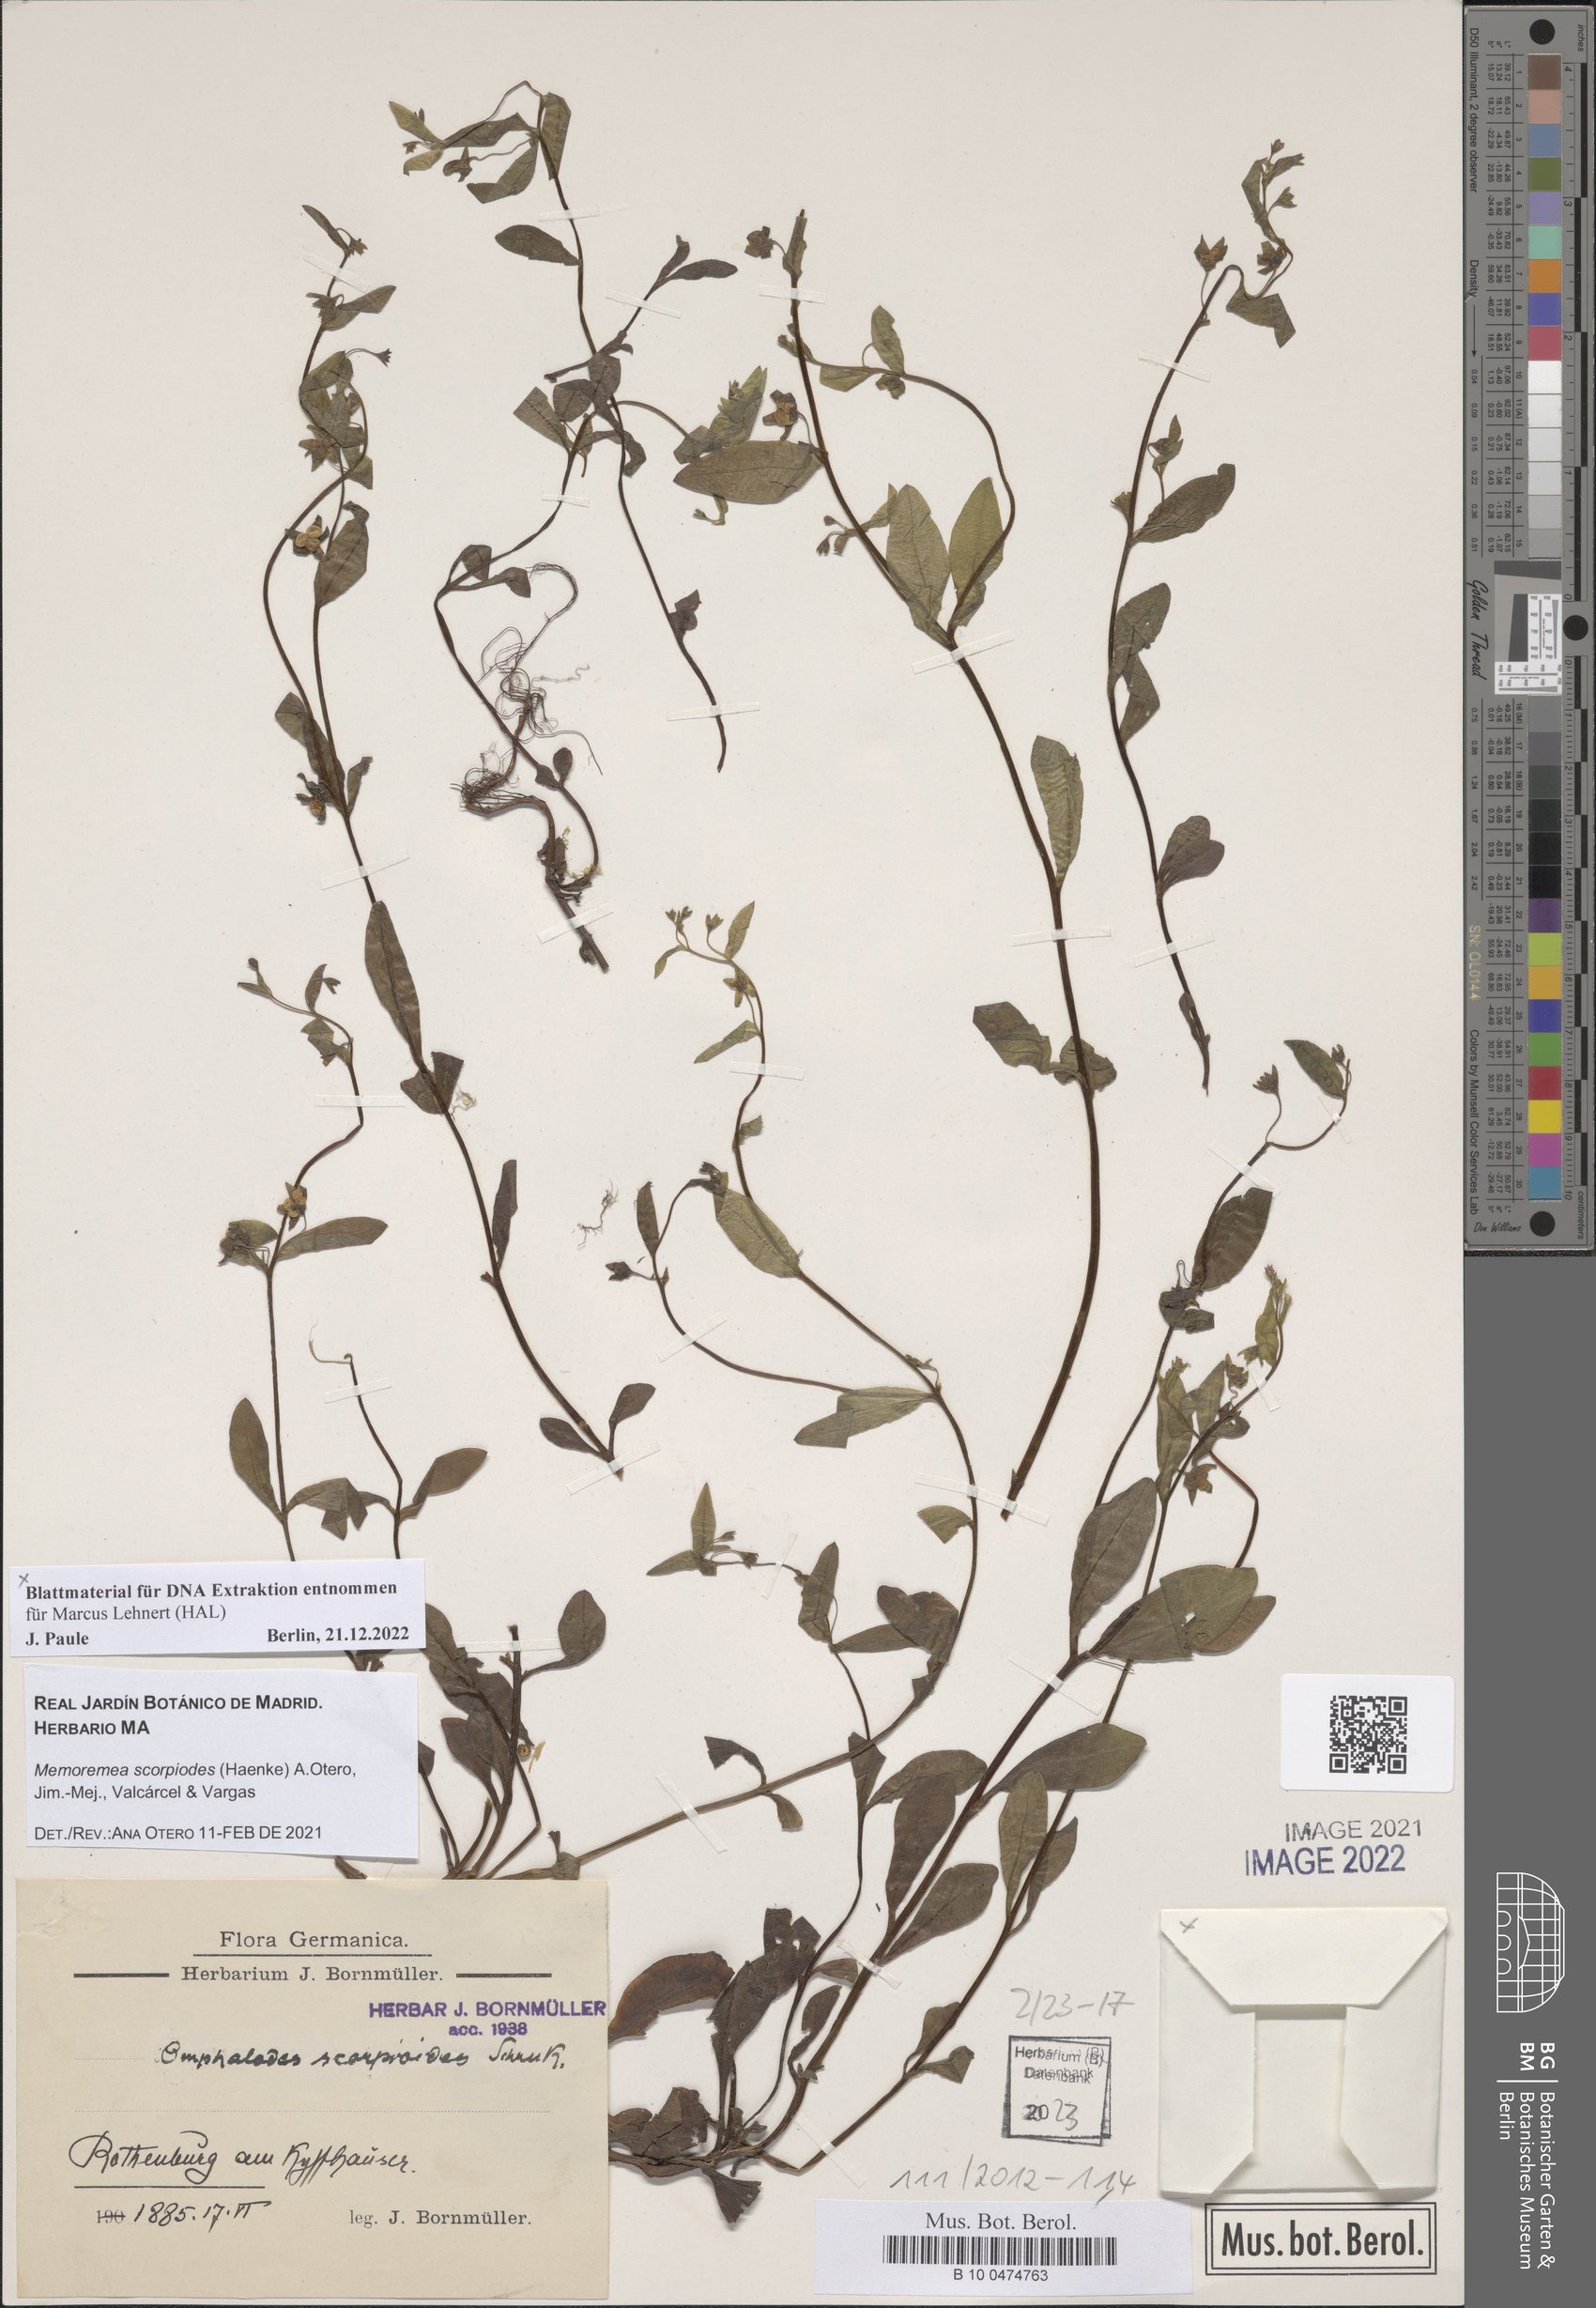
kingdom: Plantae
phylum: Tracheophyta
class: Magnoliopsida
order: Boraginales
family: Boraginaceae
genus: Memoremea
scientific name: Memoremea scorpioides
